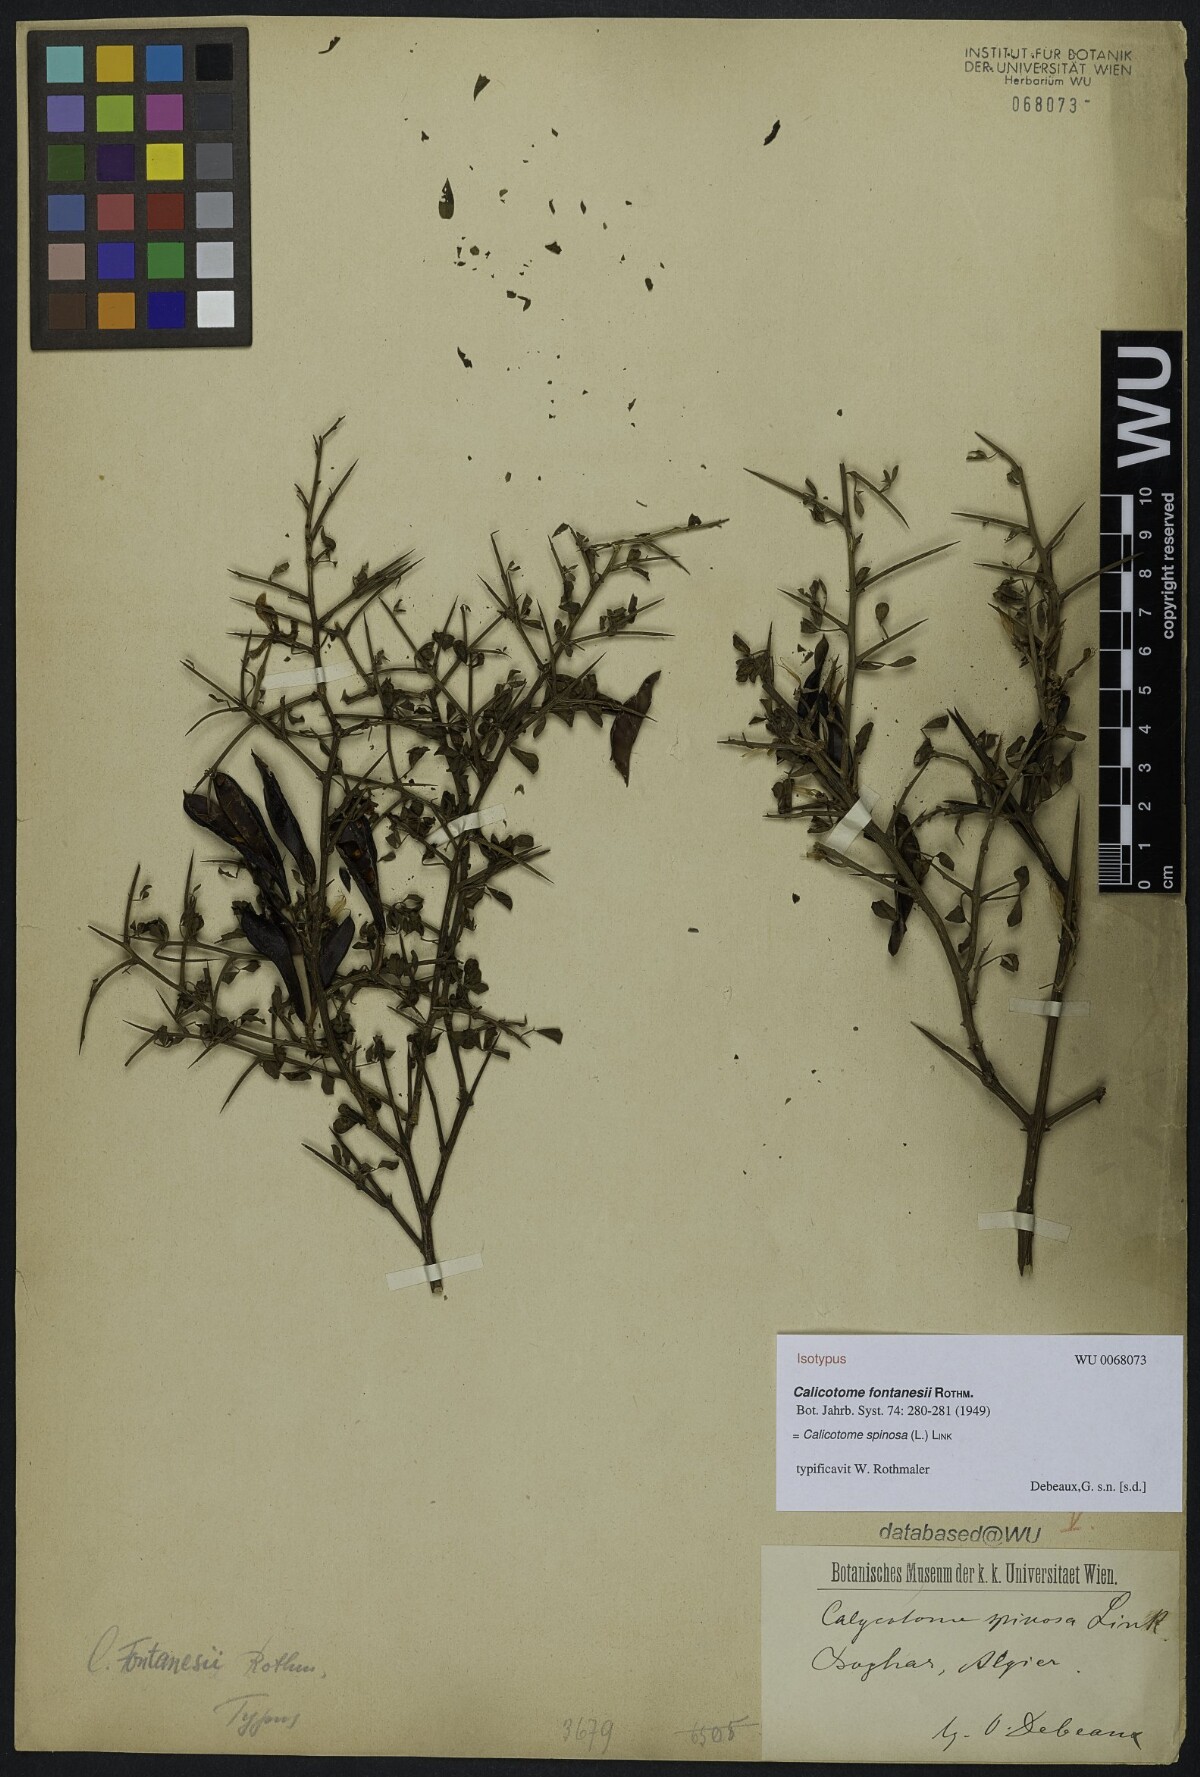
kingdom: Plantae
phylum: Tracheophyta
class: Magnoliopsida
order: Fabales
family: Fabaceae
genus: Calicotome
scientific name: Calicotome spinosa
